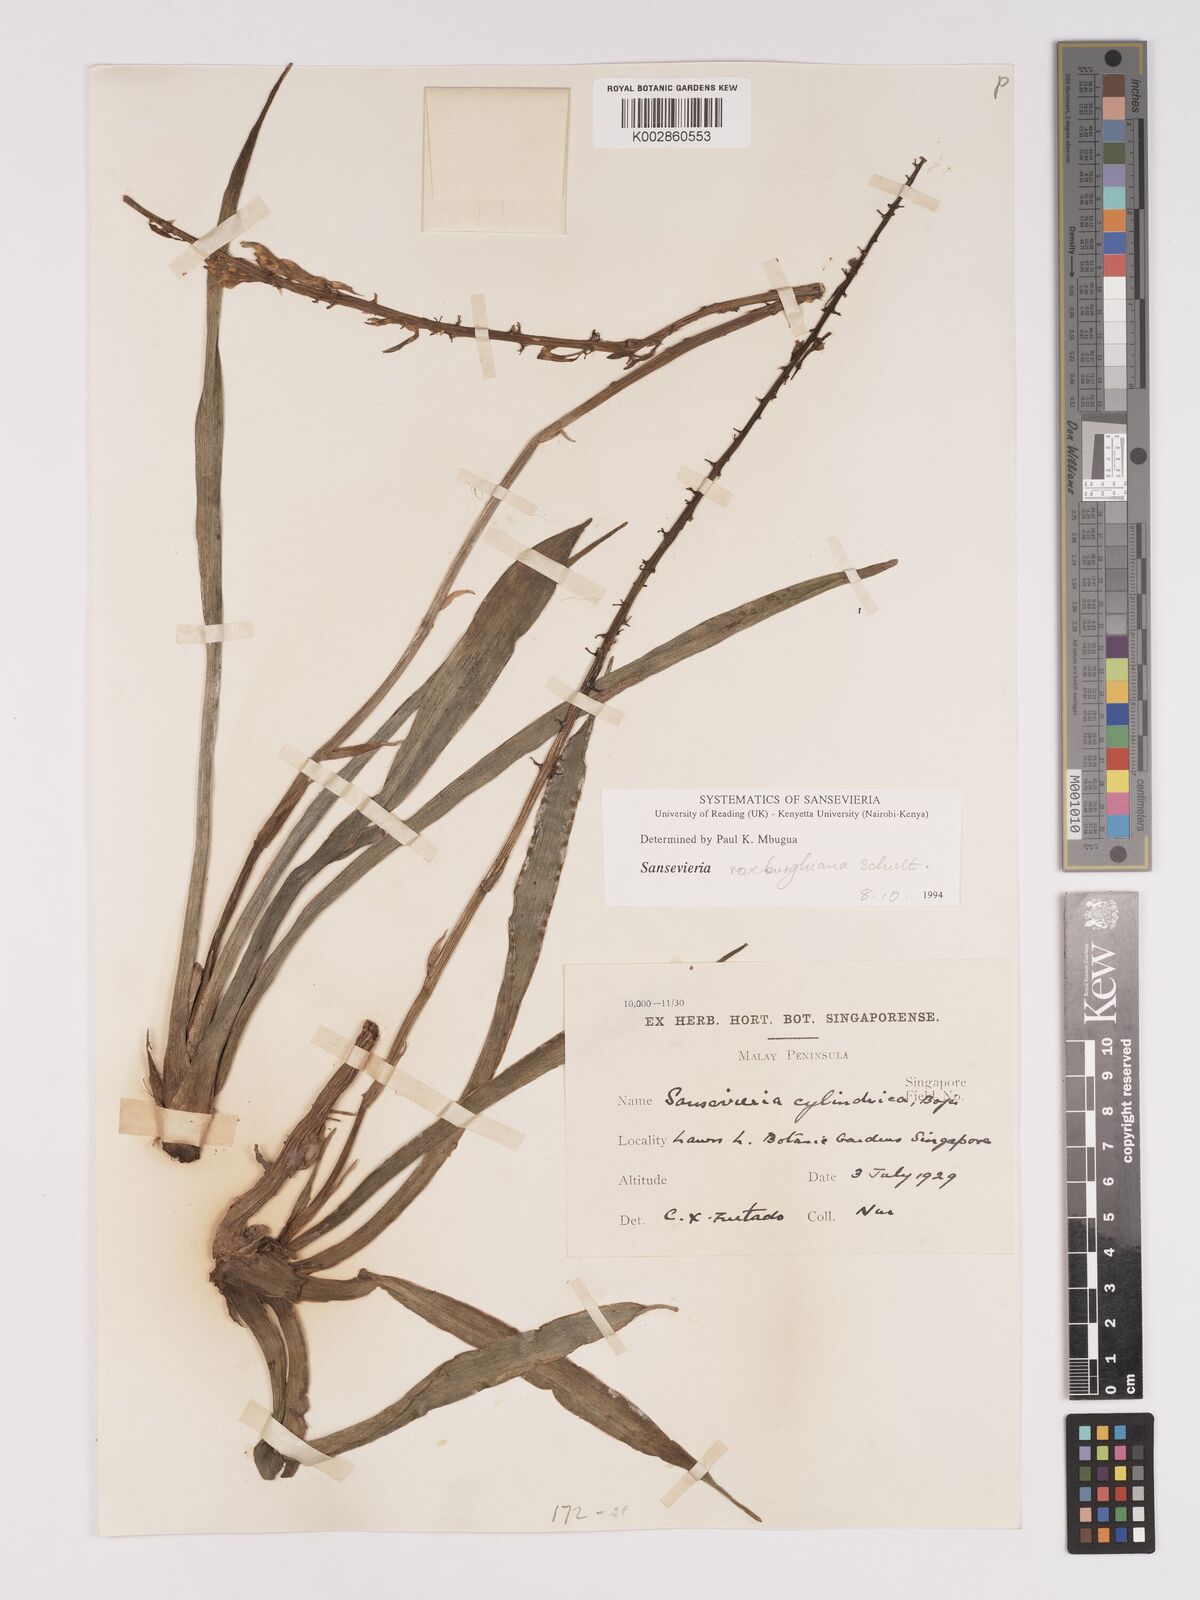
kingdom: Plantae
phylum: Tracheophyta
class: Liliopsida
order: Asparagales
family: Asparagaceae
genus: Dracaena
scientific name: Dracaena
